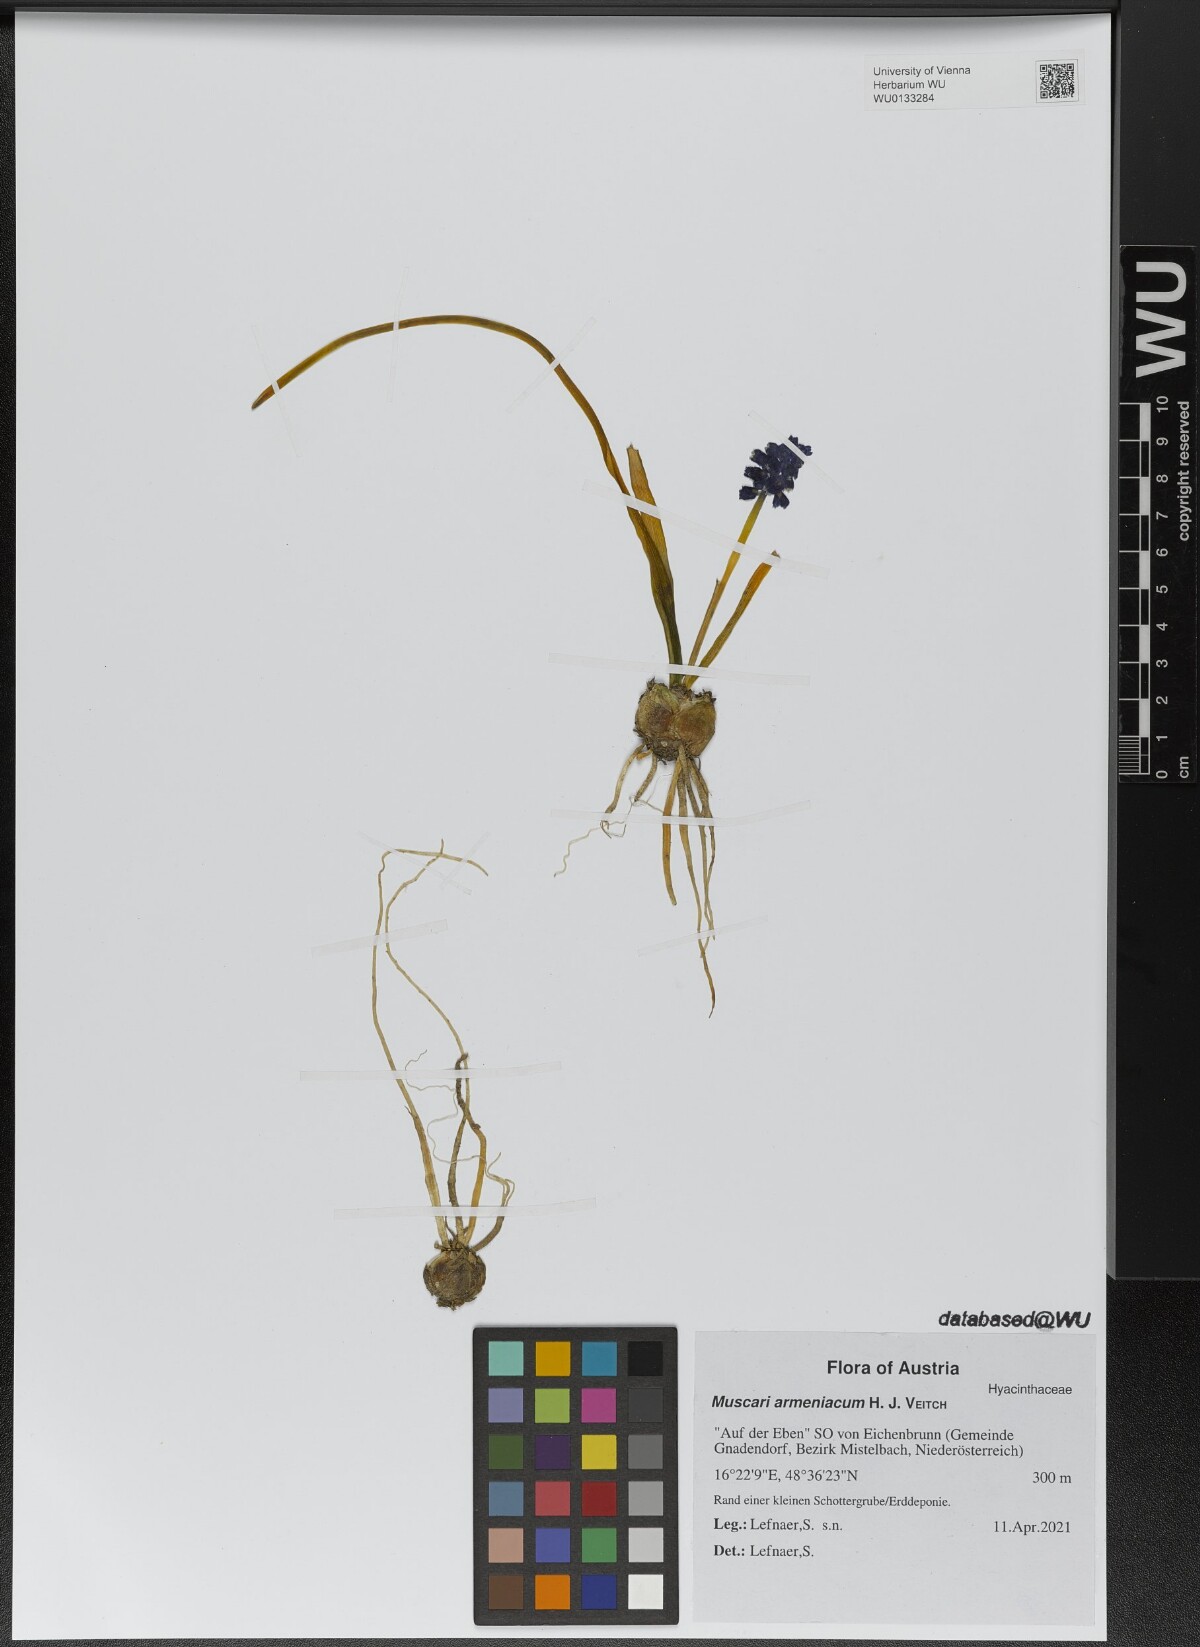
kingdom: Plantae
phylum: Tracheophyta
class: Liliopsida
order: Asparagales
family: Asparagaceae
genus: Muscari
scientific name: Muscari armeniacum
